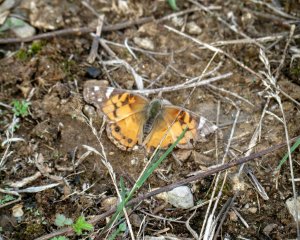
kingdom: Animalia
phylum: Arthropoda
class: Insecta
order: Lepidoptera
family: Nymphalidae
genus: Vanessa
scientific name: Vanessa virginiensis
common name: American Lady
